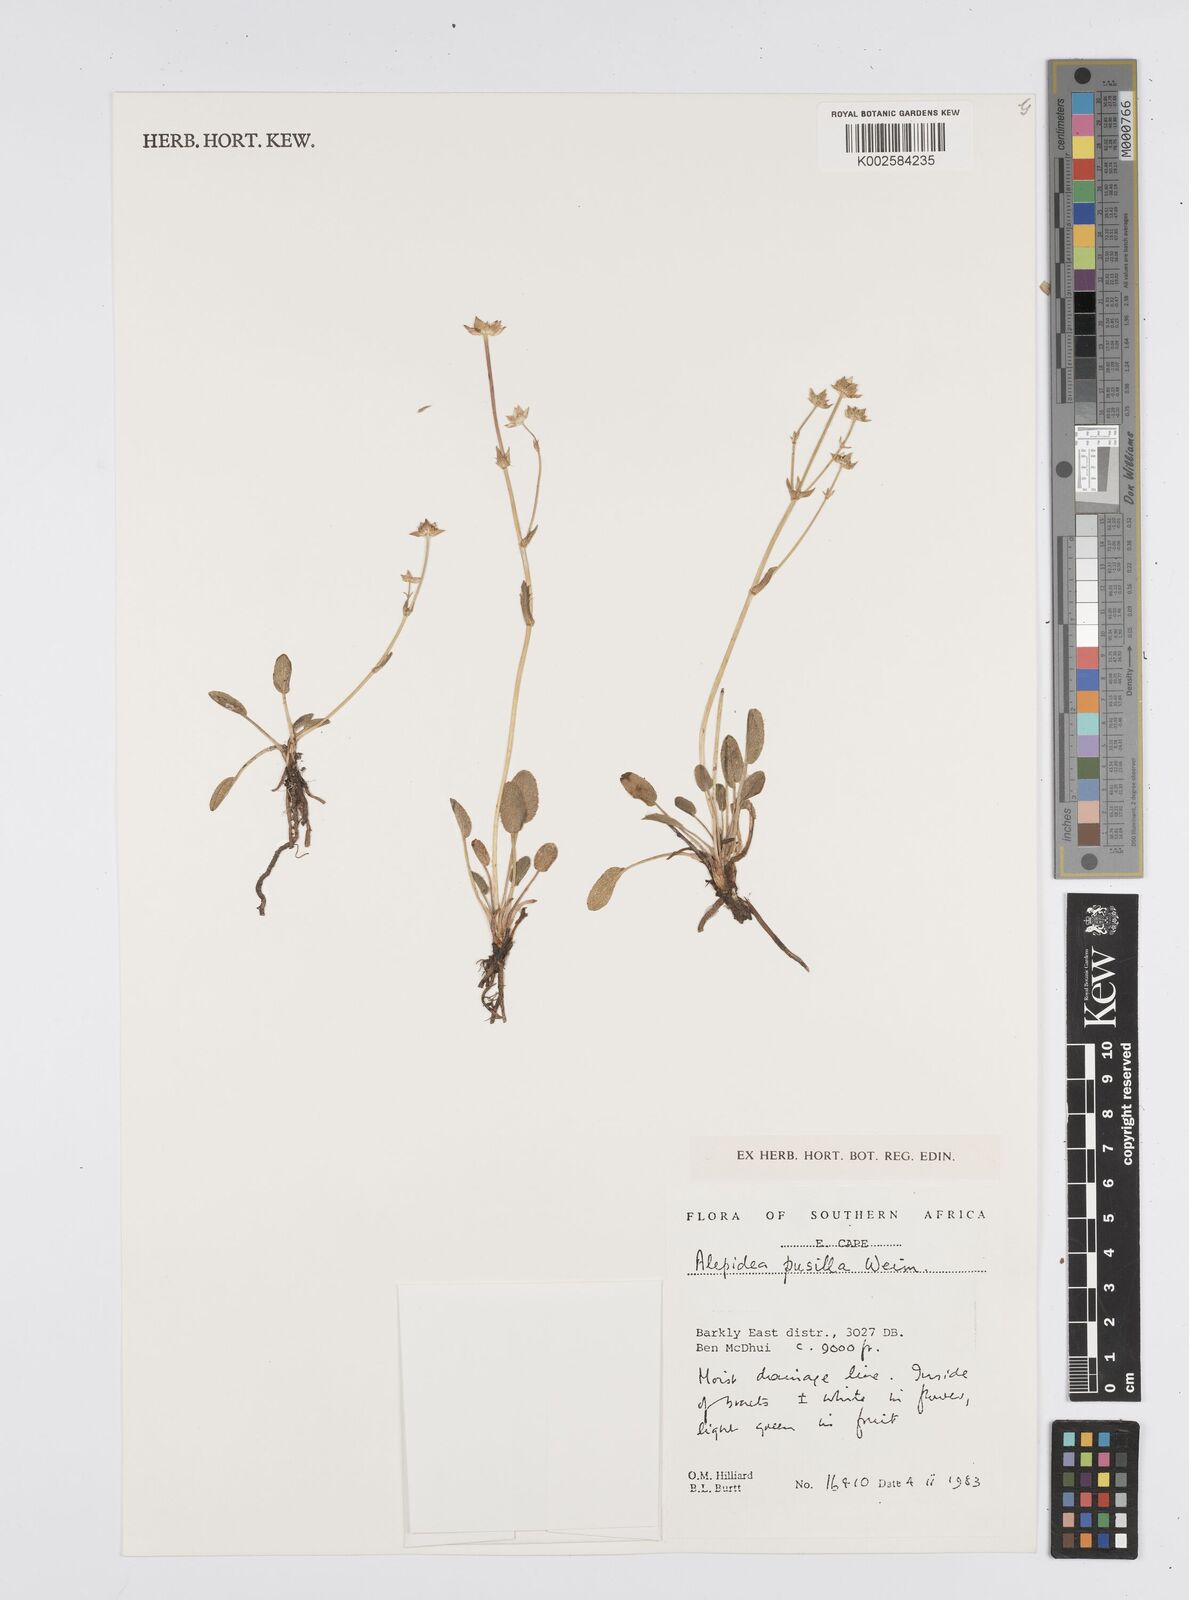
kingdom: Plantae
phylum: Tracheophyta
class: Magnoliopsida
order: Apiales
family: Apiaceae
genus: Alepidea
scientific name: Alepidea pusilla
